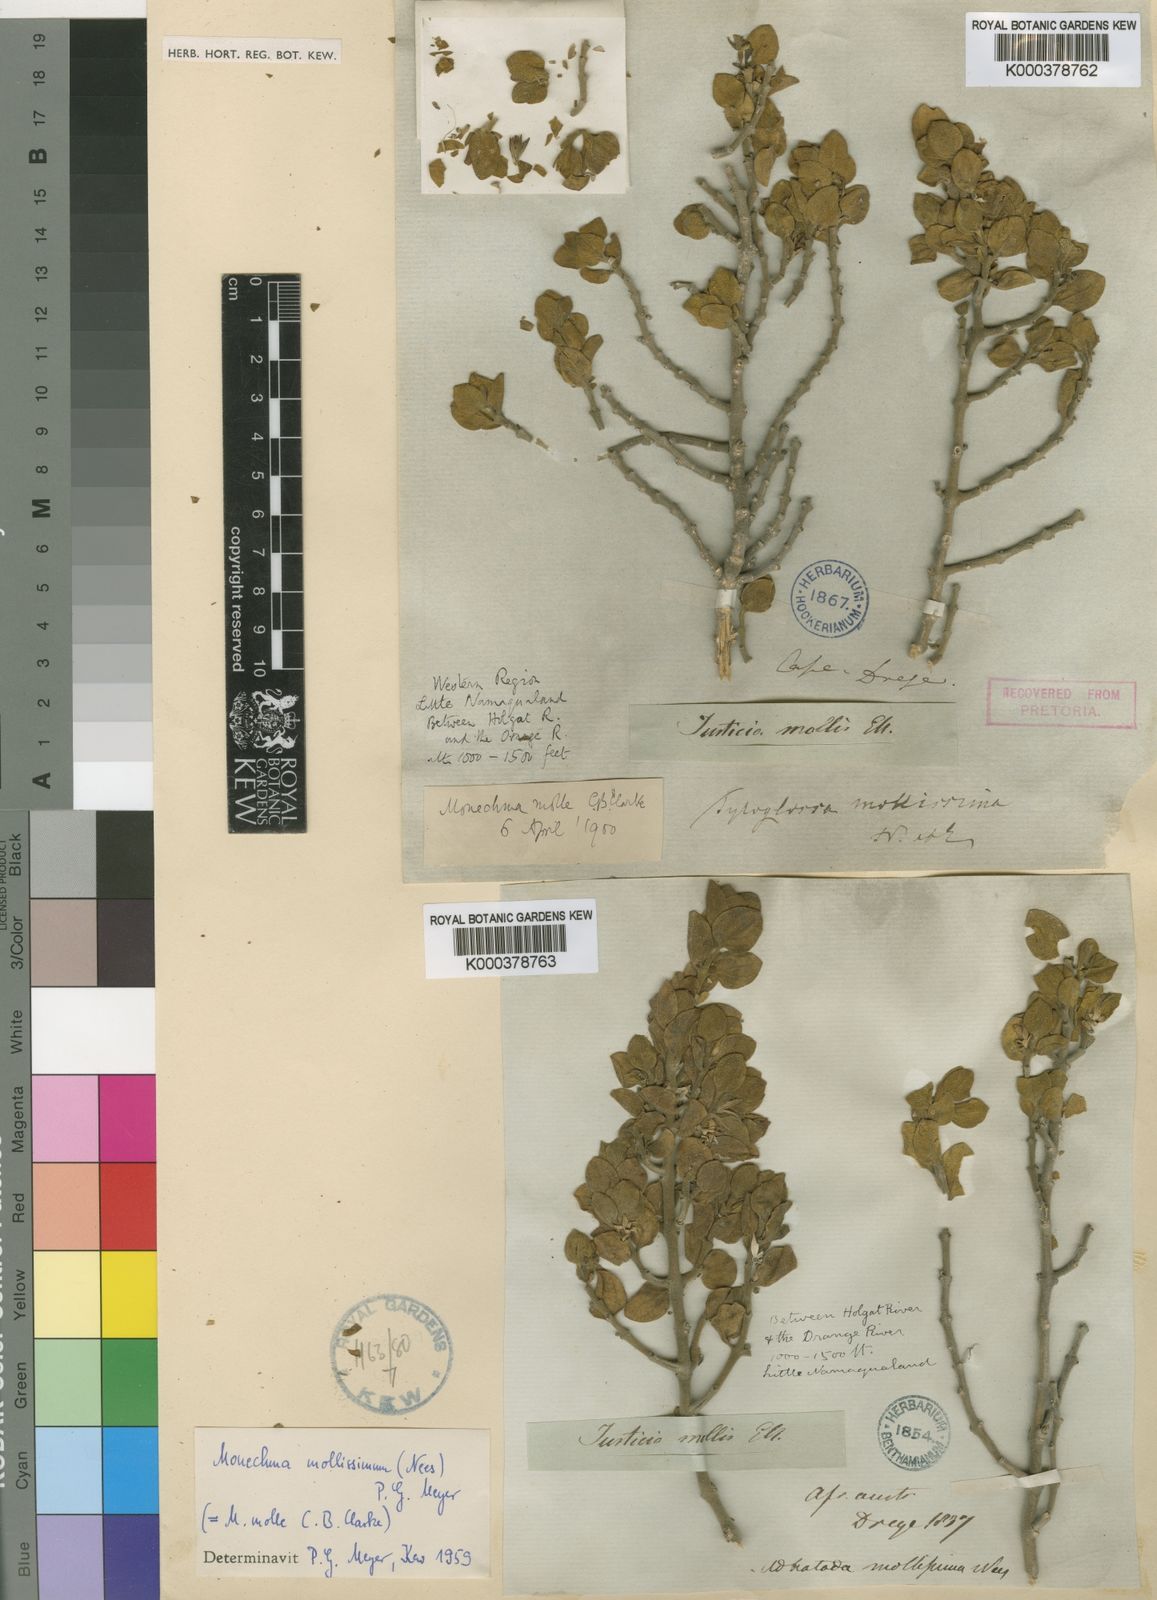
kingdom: Plantae
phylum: Tracheophyta
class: Magnoliopsida
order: Lamiales
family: Acanthaceae
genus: Monechma
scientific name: Monechma mollissimum
